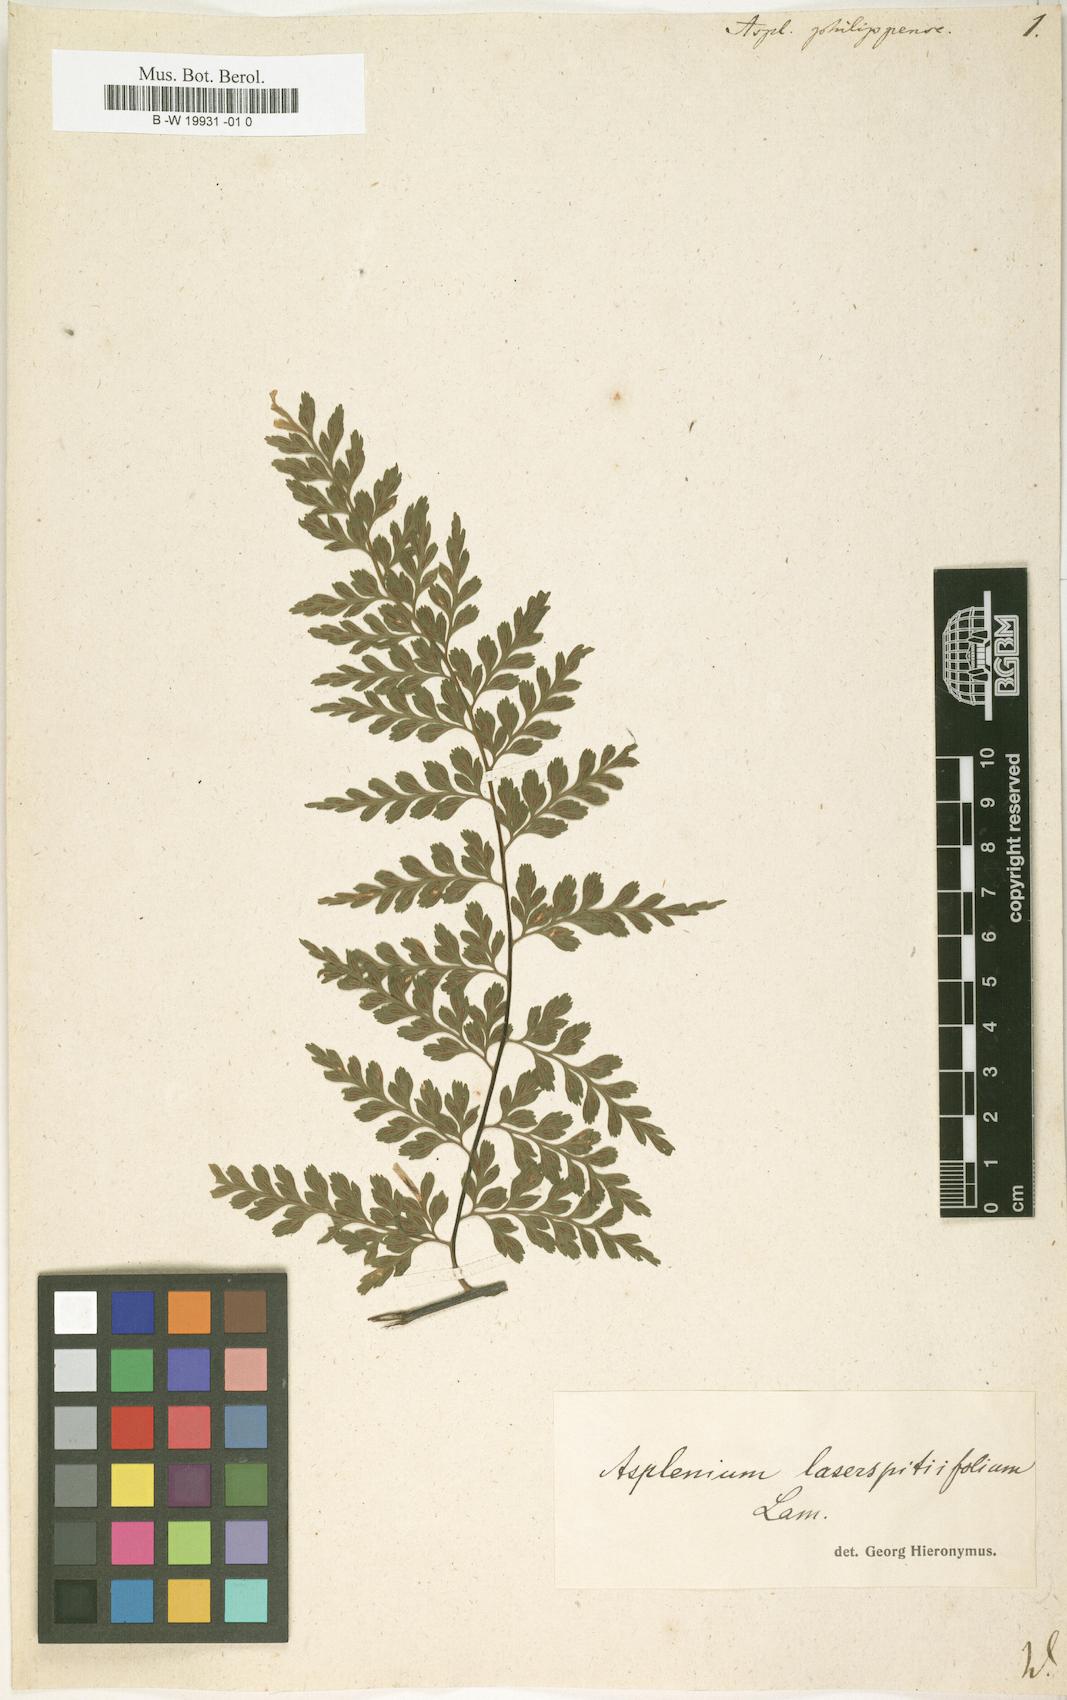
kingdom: Plantae
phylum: Tracheophyta
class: Polypodiopsida
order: Polypodiales
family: Aspleniaceae
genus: Asplenium
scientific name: Asplenium
